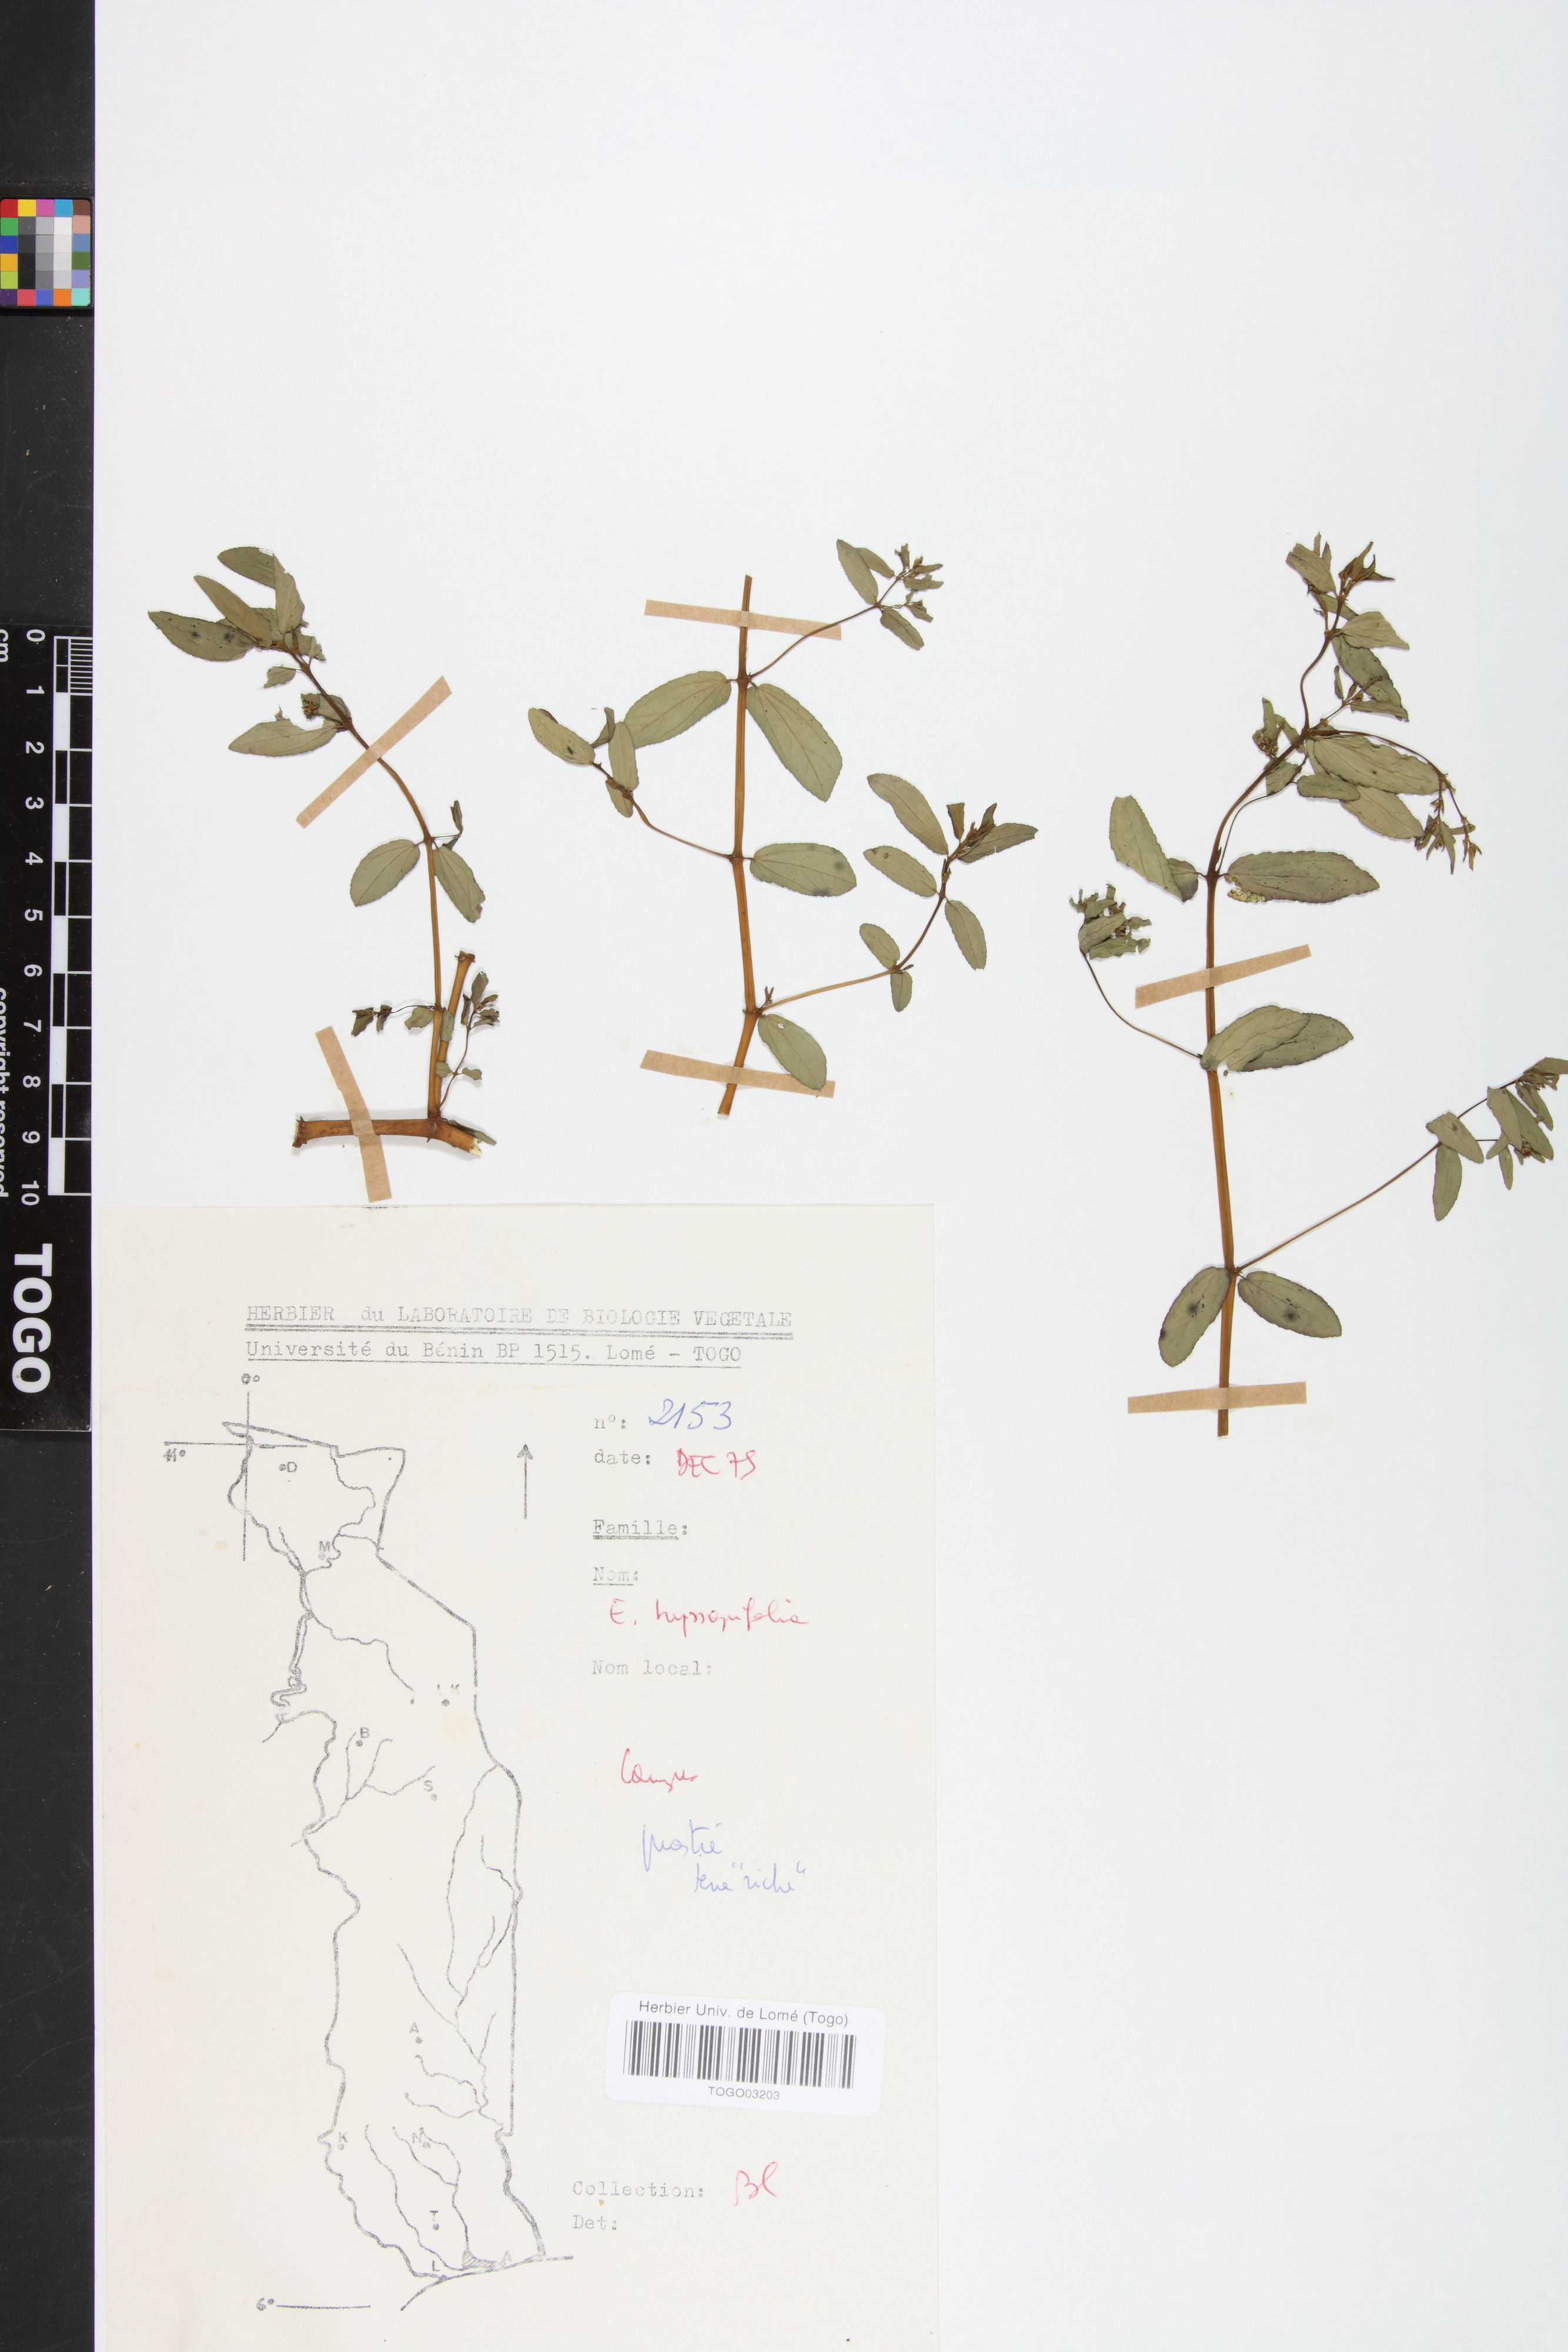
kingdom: Plantae
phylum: Tracheophyta
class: Magnoliopsida
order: Malpighiales
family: Euphorbiaceae
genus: Euphorbia
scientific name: Euphorbia hyssopifolia
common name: Hyssopleaf sandmat
